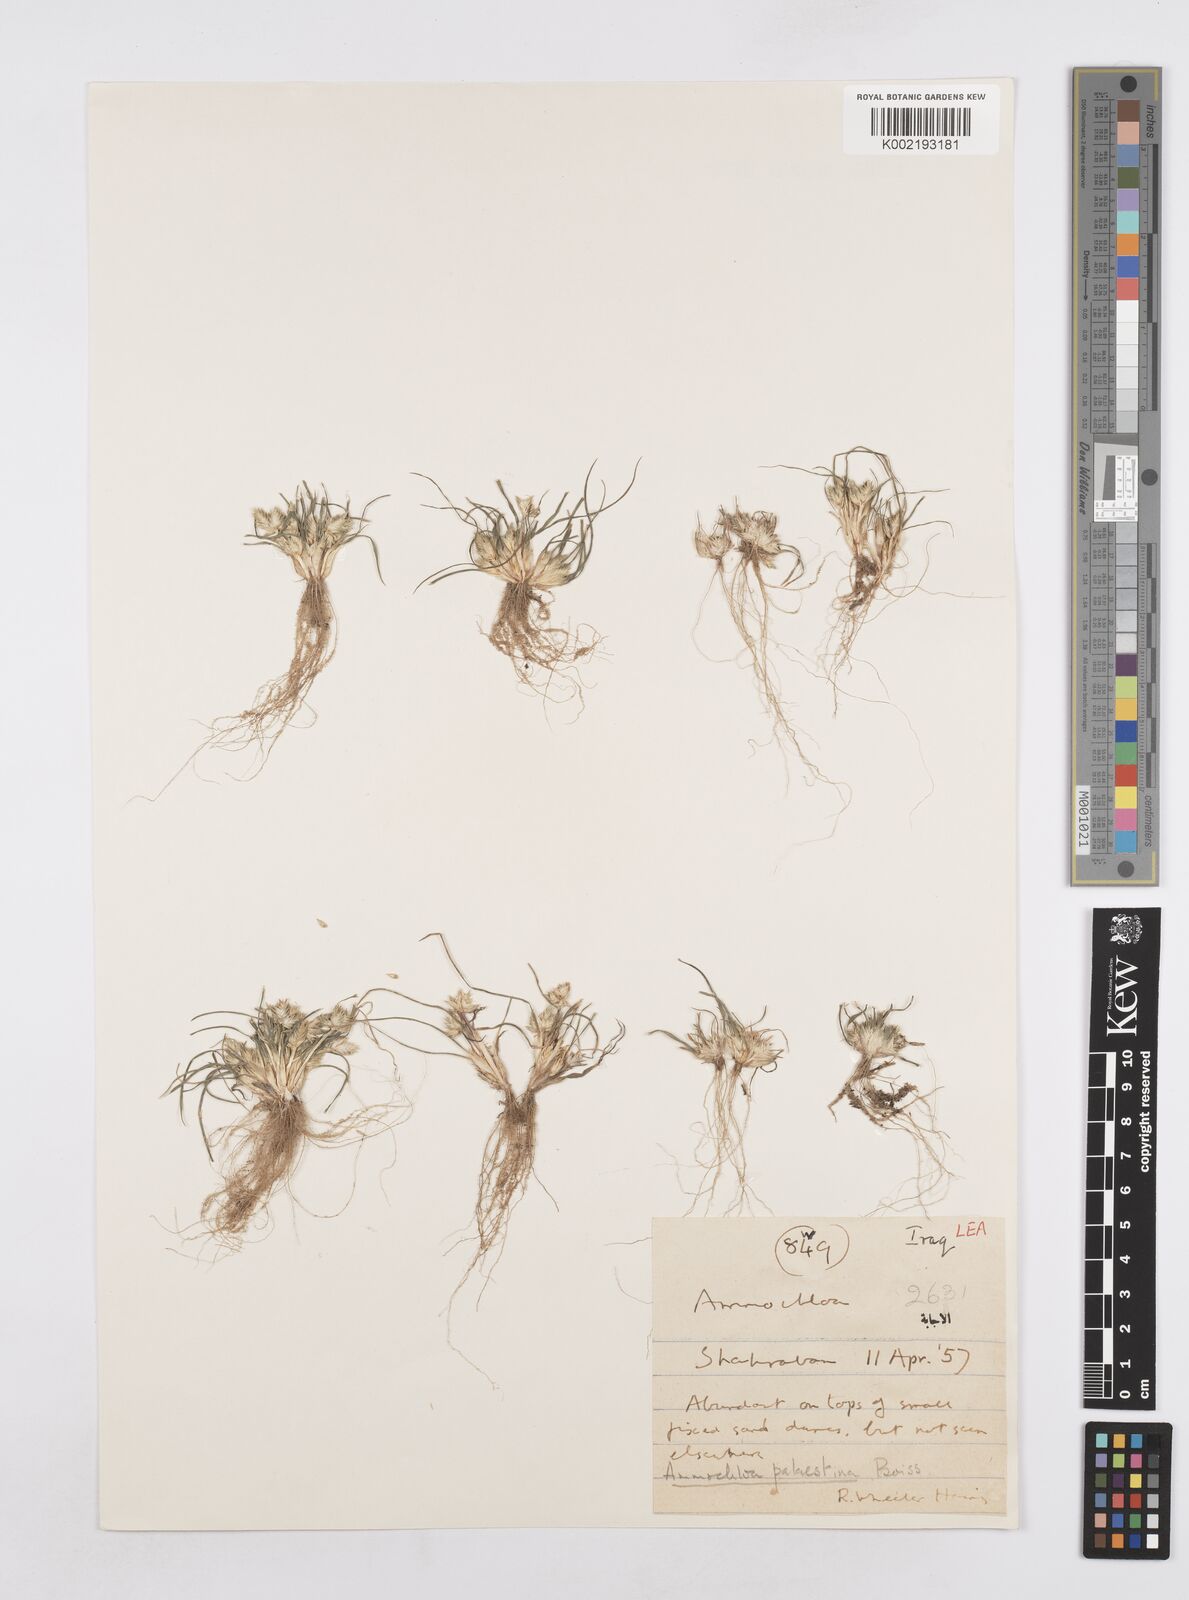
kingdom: Plantae
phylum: Tracheophyta
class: Liliopsida
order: Poales
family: Poaceae
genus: Ammochloa
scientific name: Ammochloa palaestina
